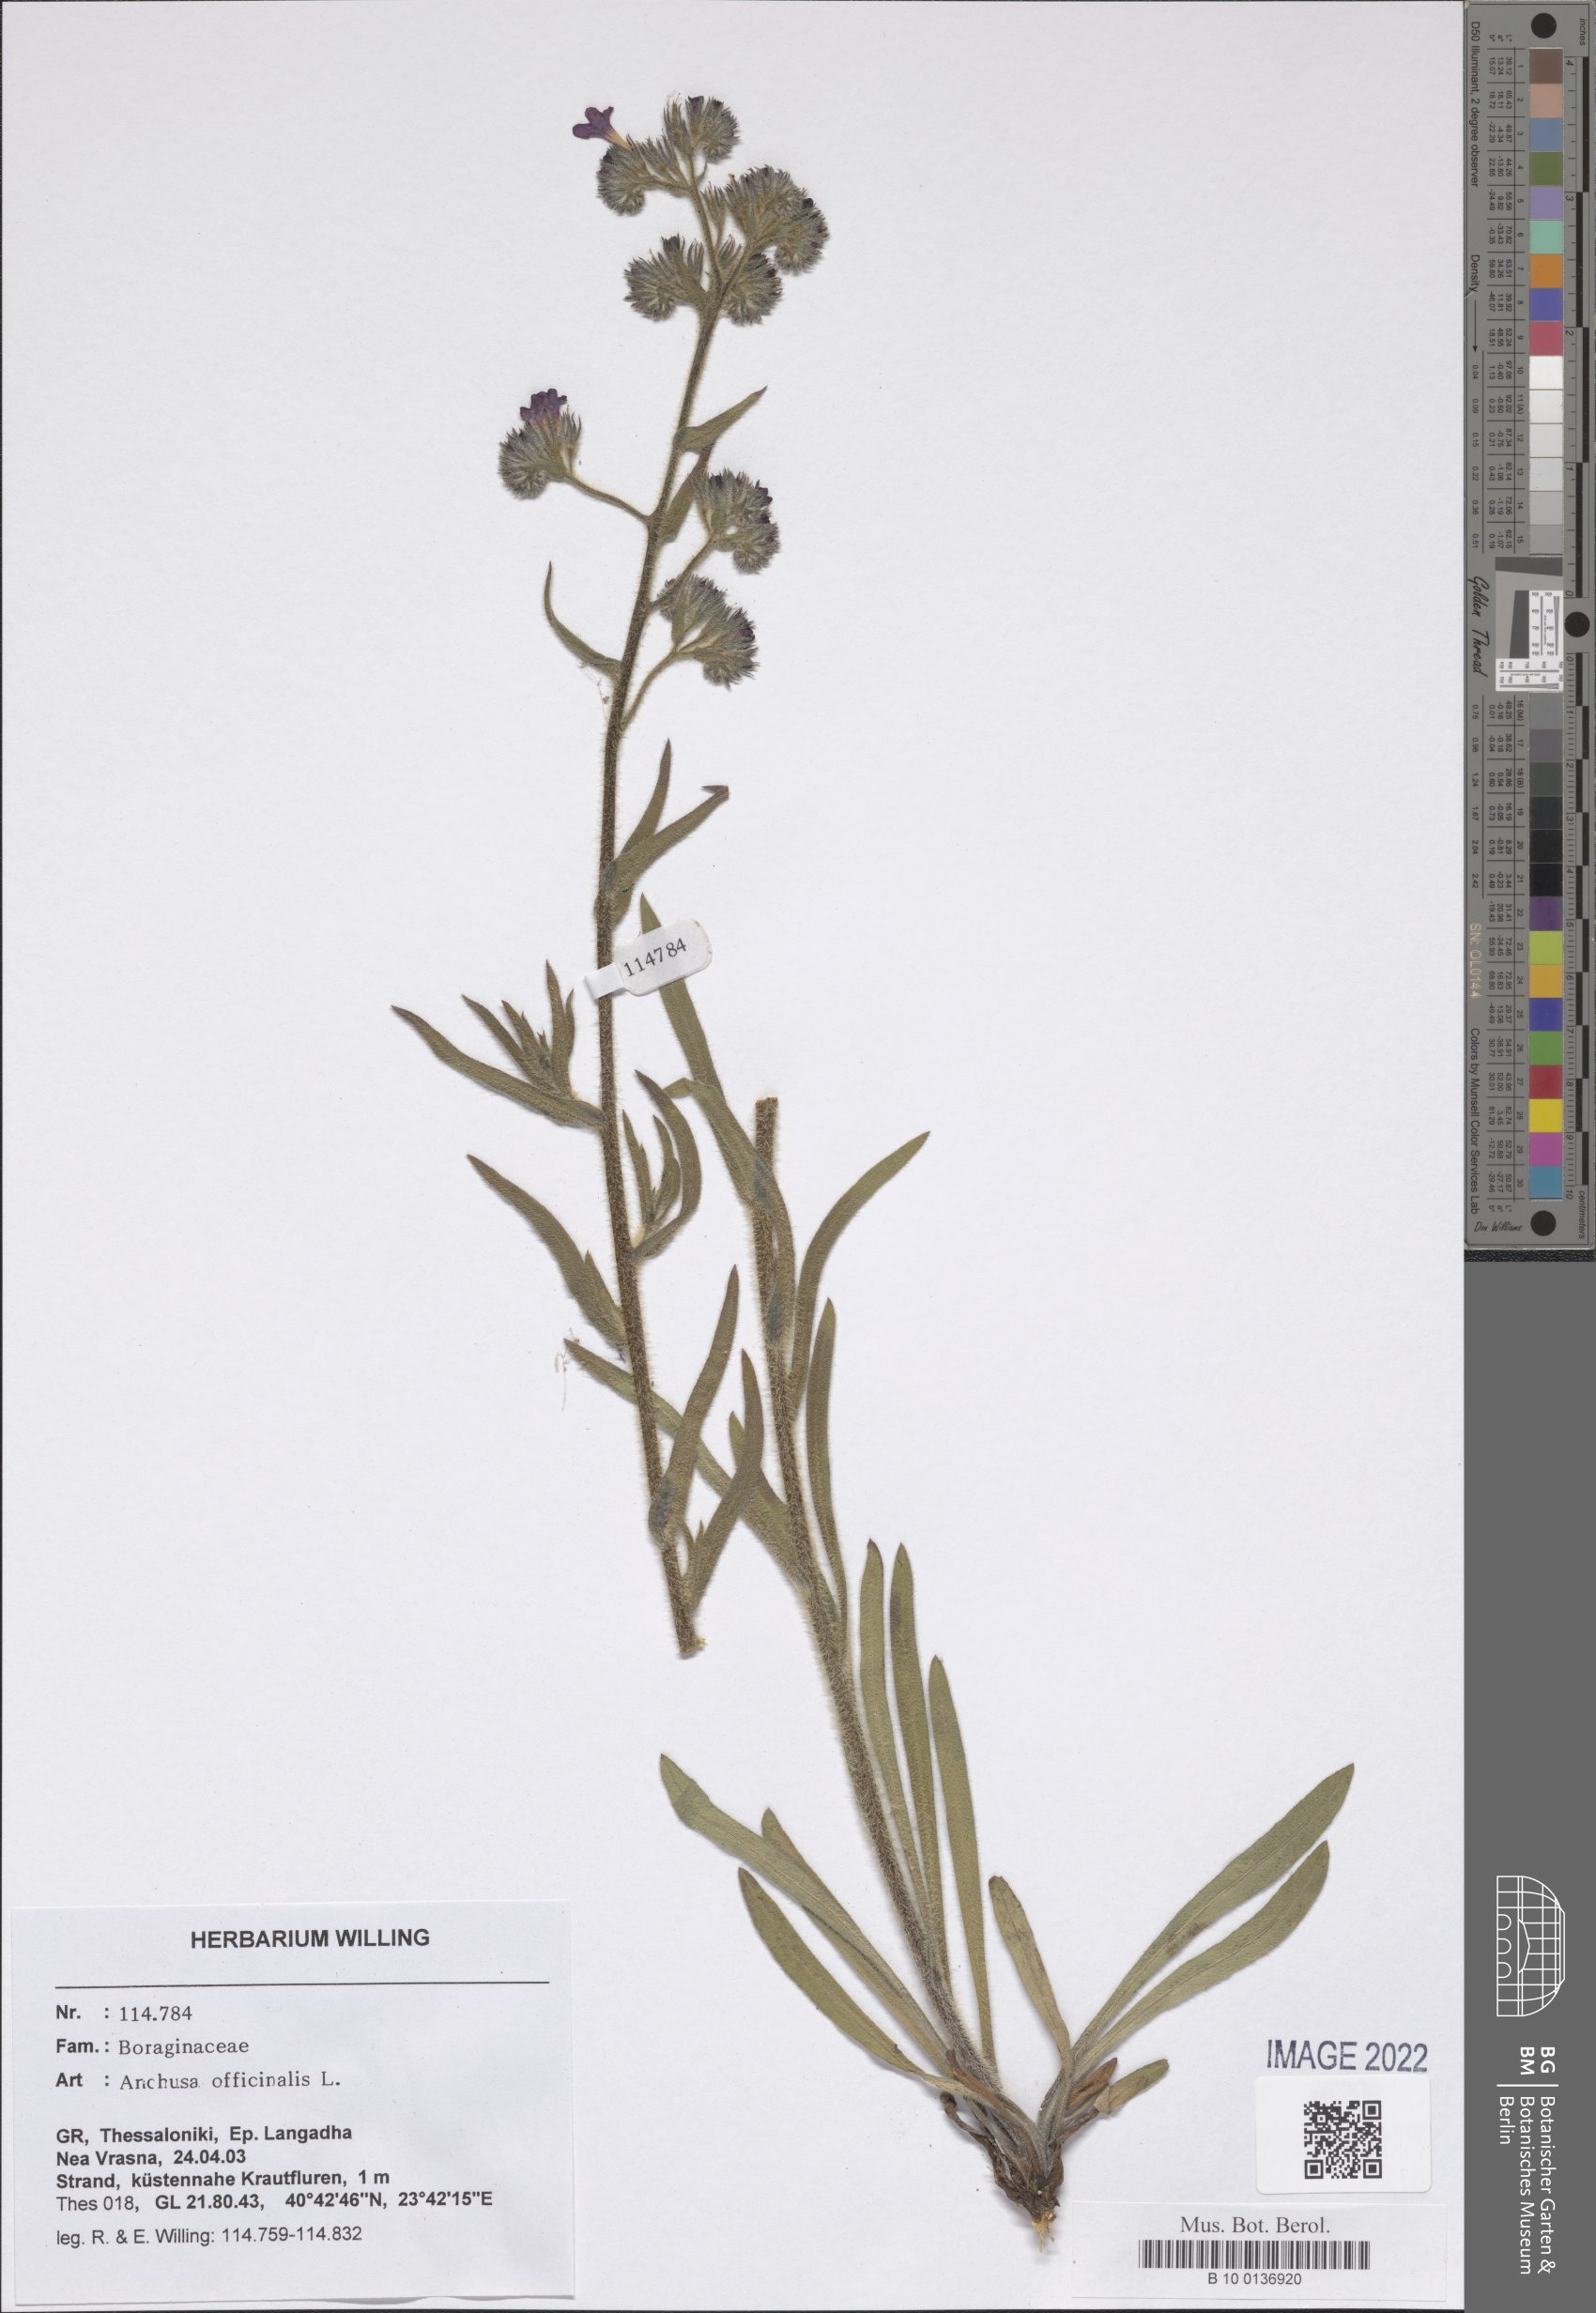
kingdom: Plantae
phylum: Tracheophyta
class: Magnoliopsida
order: Boraginales
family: Boraginaceae
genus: Anchusa
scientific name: Anchusa officinalis
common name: Alkanet
